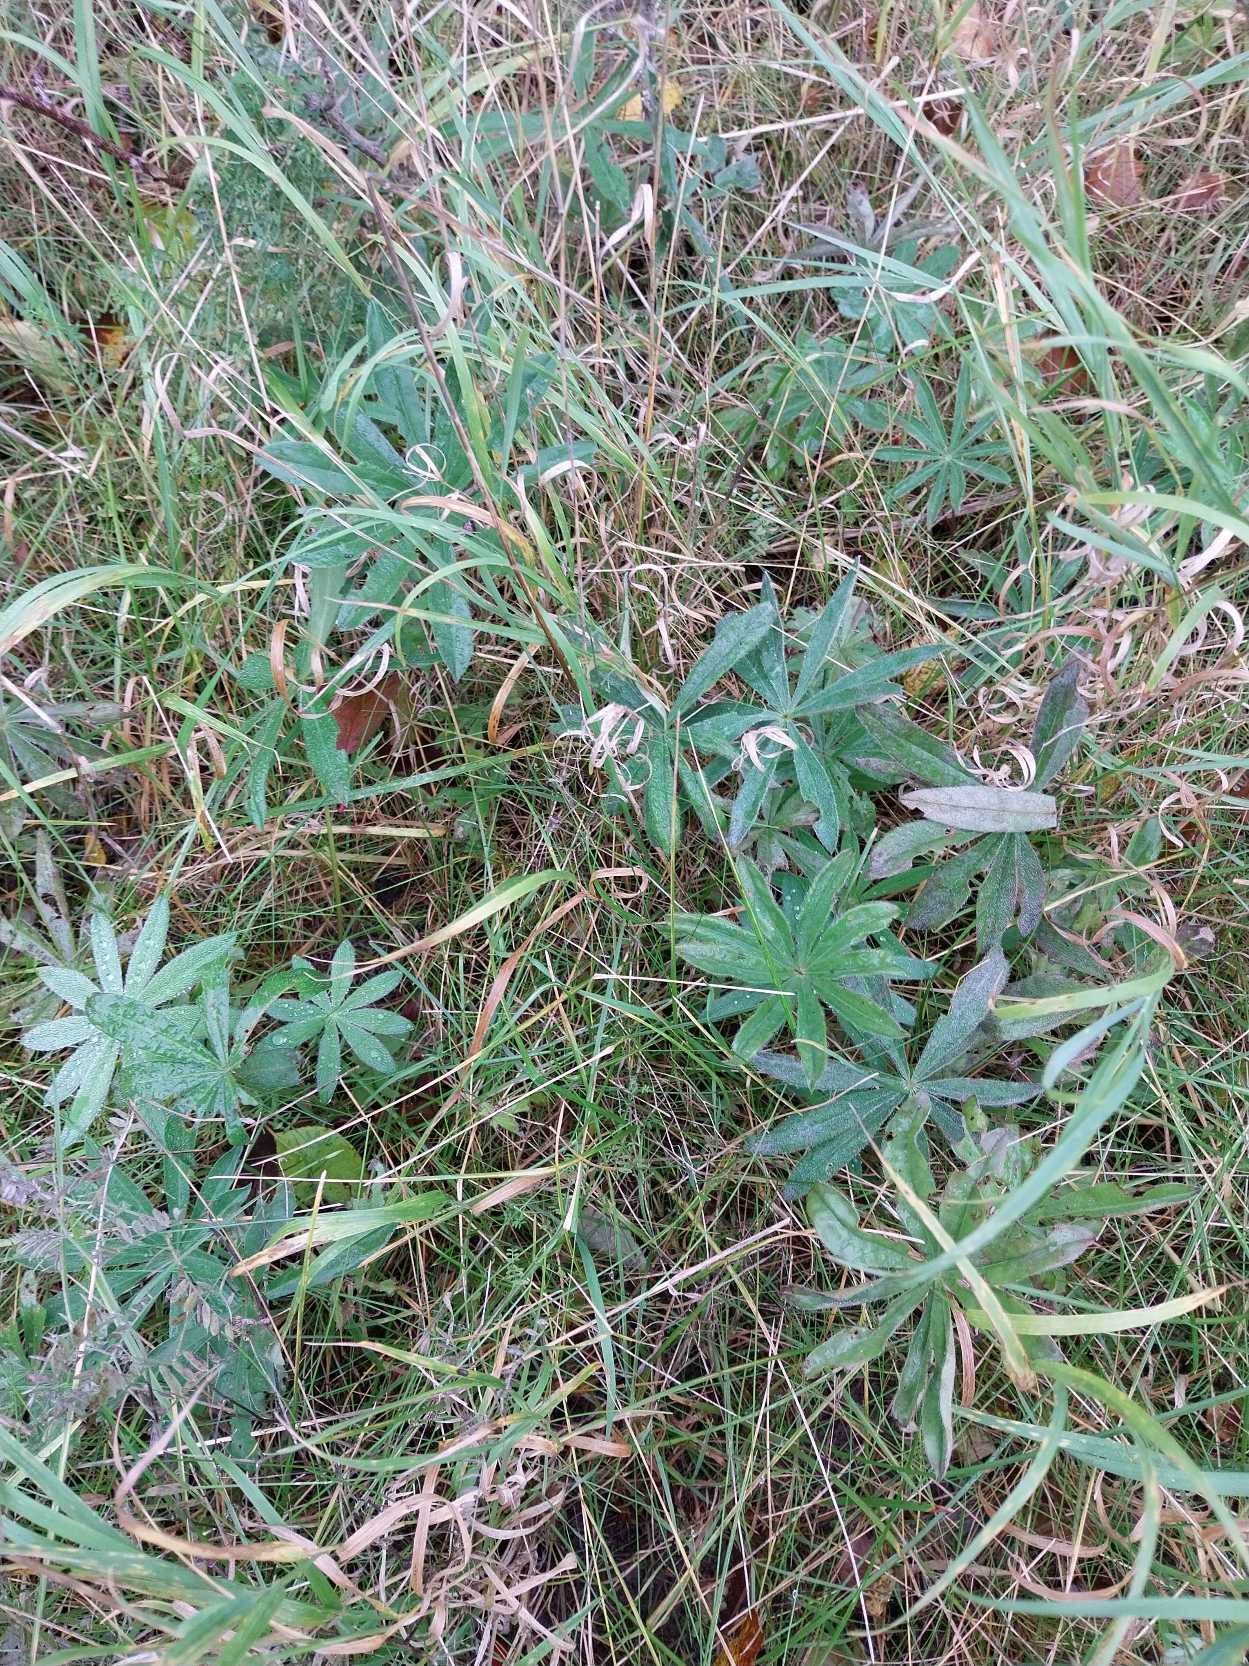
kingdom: Plantae
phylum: Tracheophyta
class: Magnoliopsida
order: Fabales
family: Fabaceae
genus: Lupinus
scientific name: Lupinus polyphyllus
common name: Mangebladet lupin
